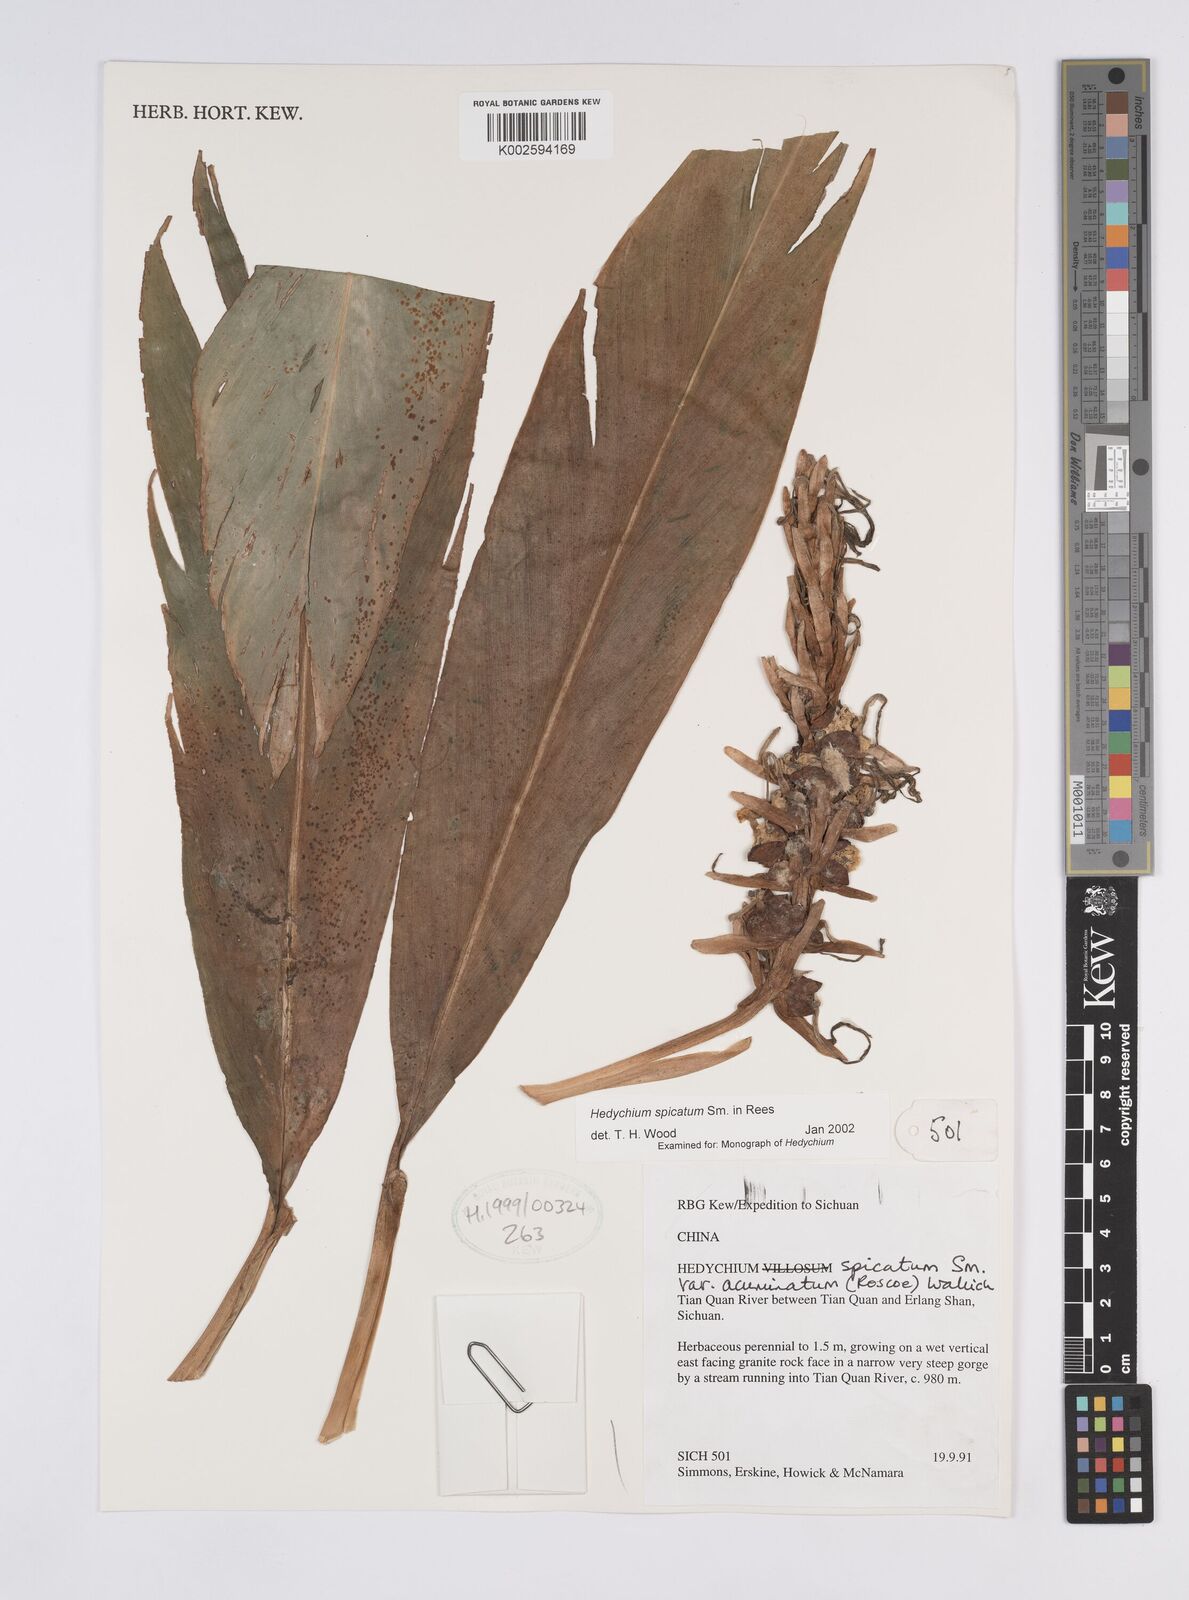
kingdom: Plantae
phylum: Tracheophyta
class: Liliopsida
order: Zingiberales
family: Zingiberaceae
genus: Hedychium
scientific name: Hedychium spicatum
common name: Spiked ginger-lily
